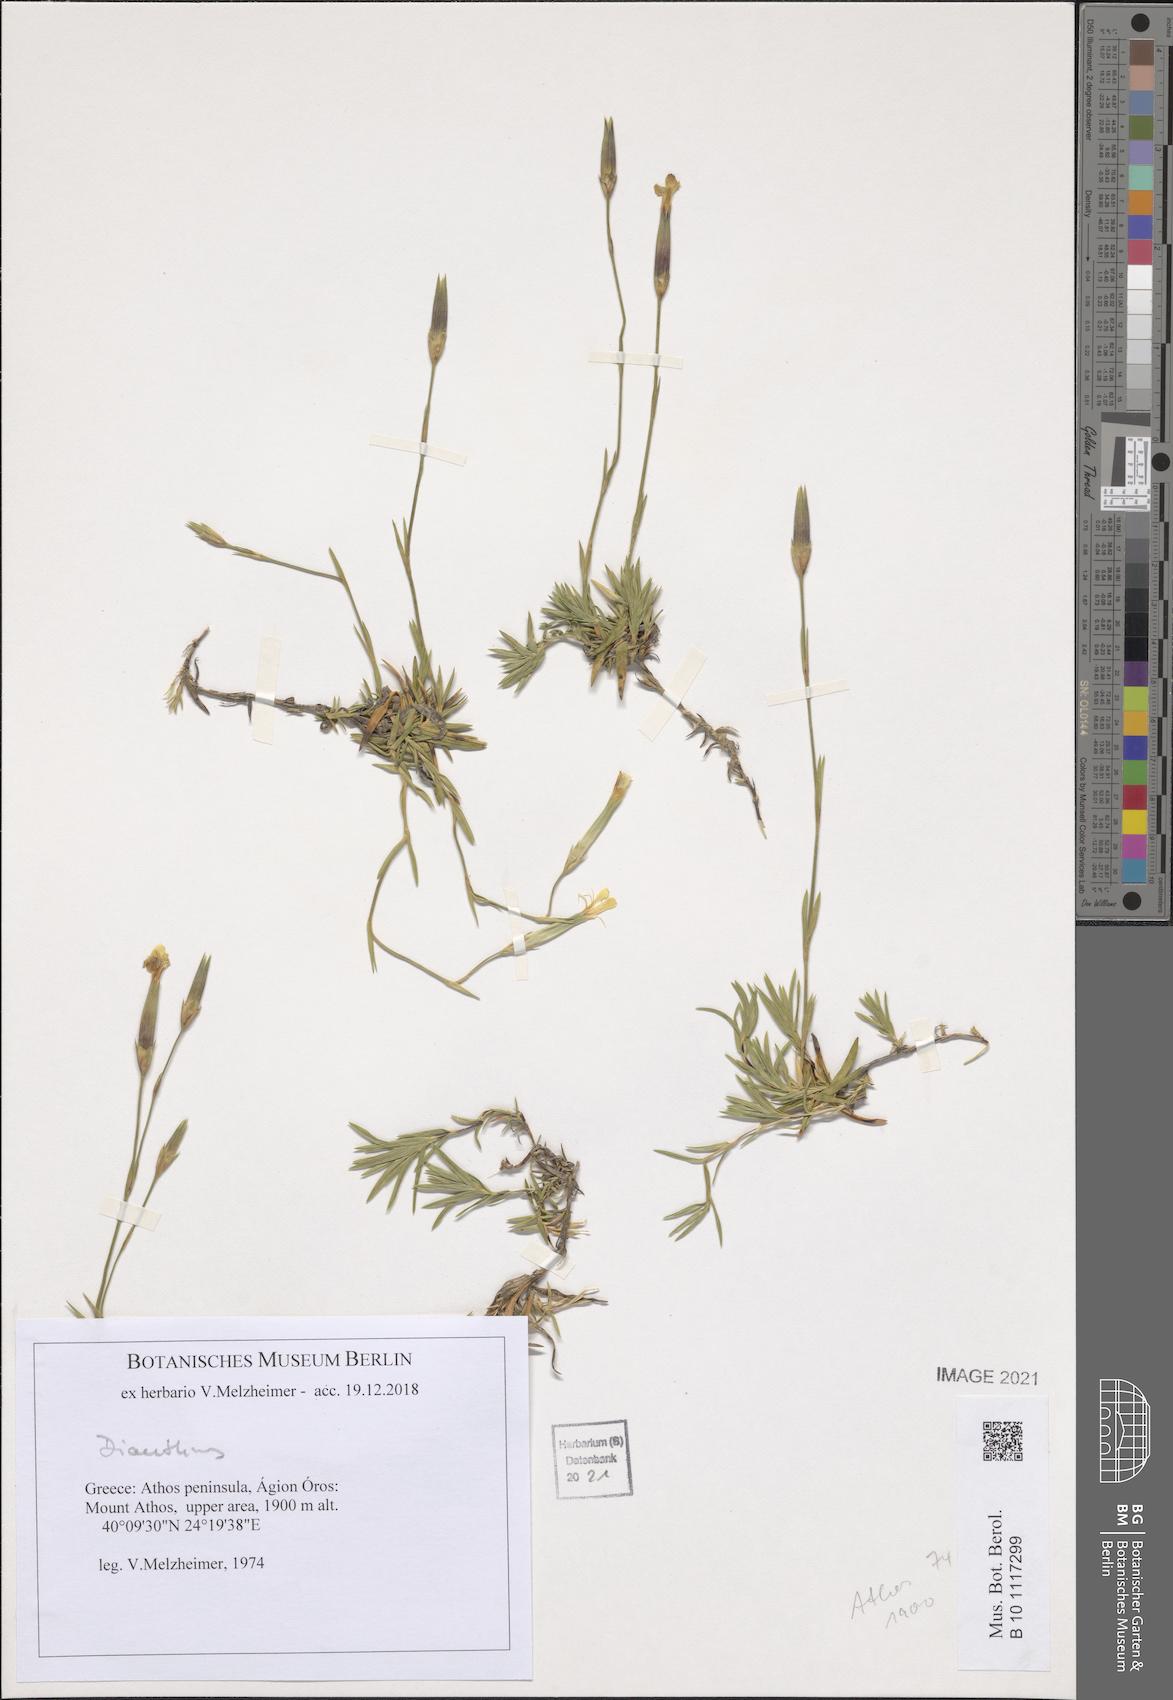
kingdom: Plantae
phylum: Tracheophyta
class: Magnoliopsida
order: Caryophyllales
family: Caryophyllaceae
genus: Dianthus
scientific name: Dianthus
